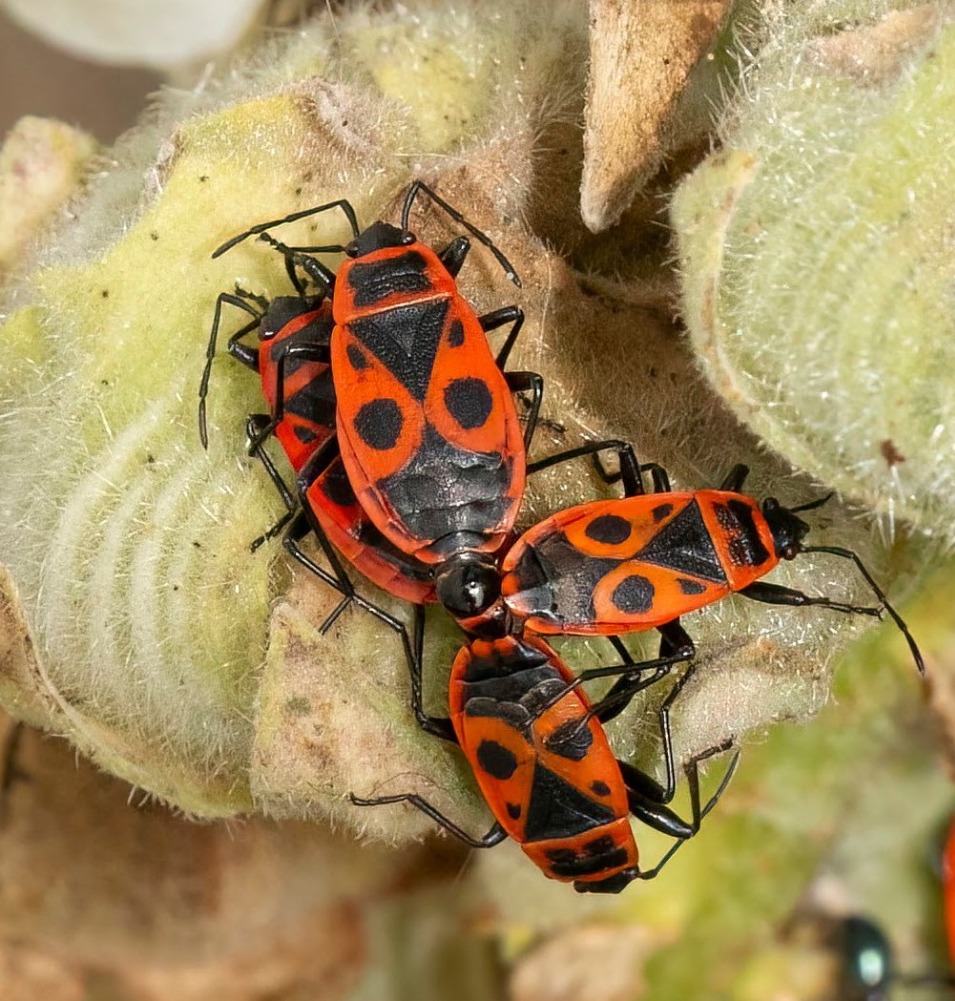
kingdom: Animalia
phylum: Arthropoda
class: Insecta
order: Hemiptera
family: Pyrrhocoridae
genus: Pyrrhocoris
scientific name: Pyrrhocoris apterus
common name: Ildtæge
